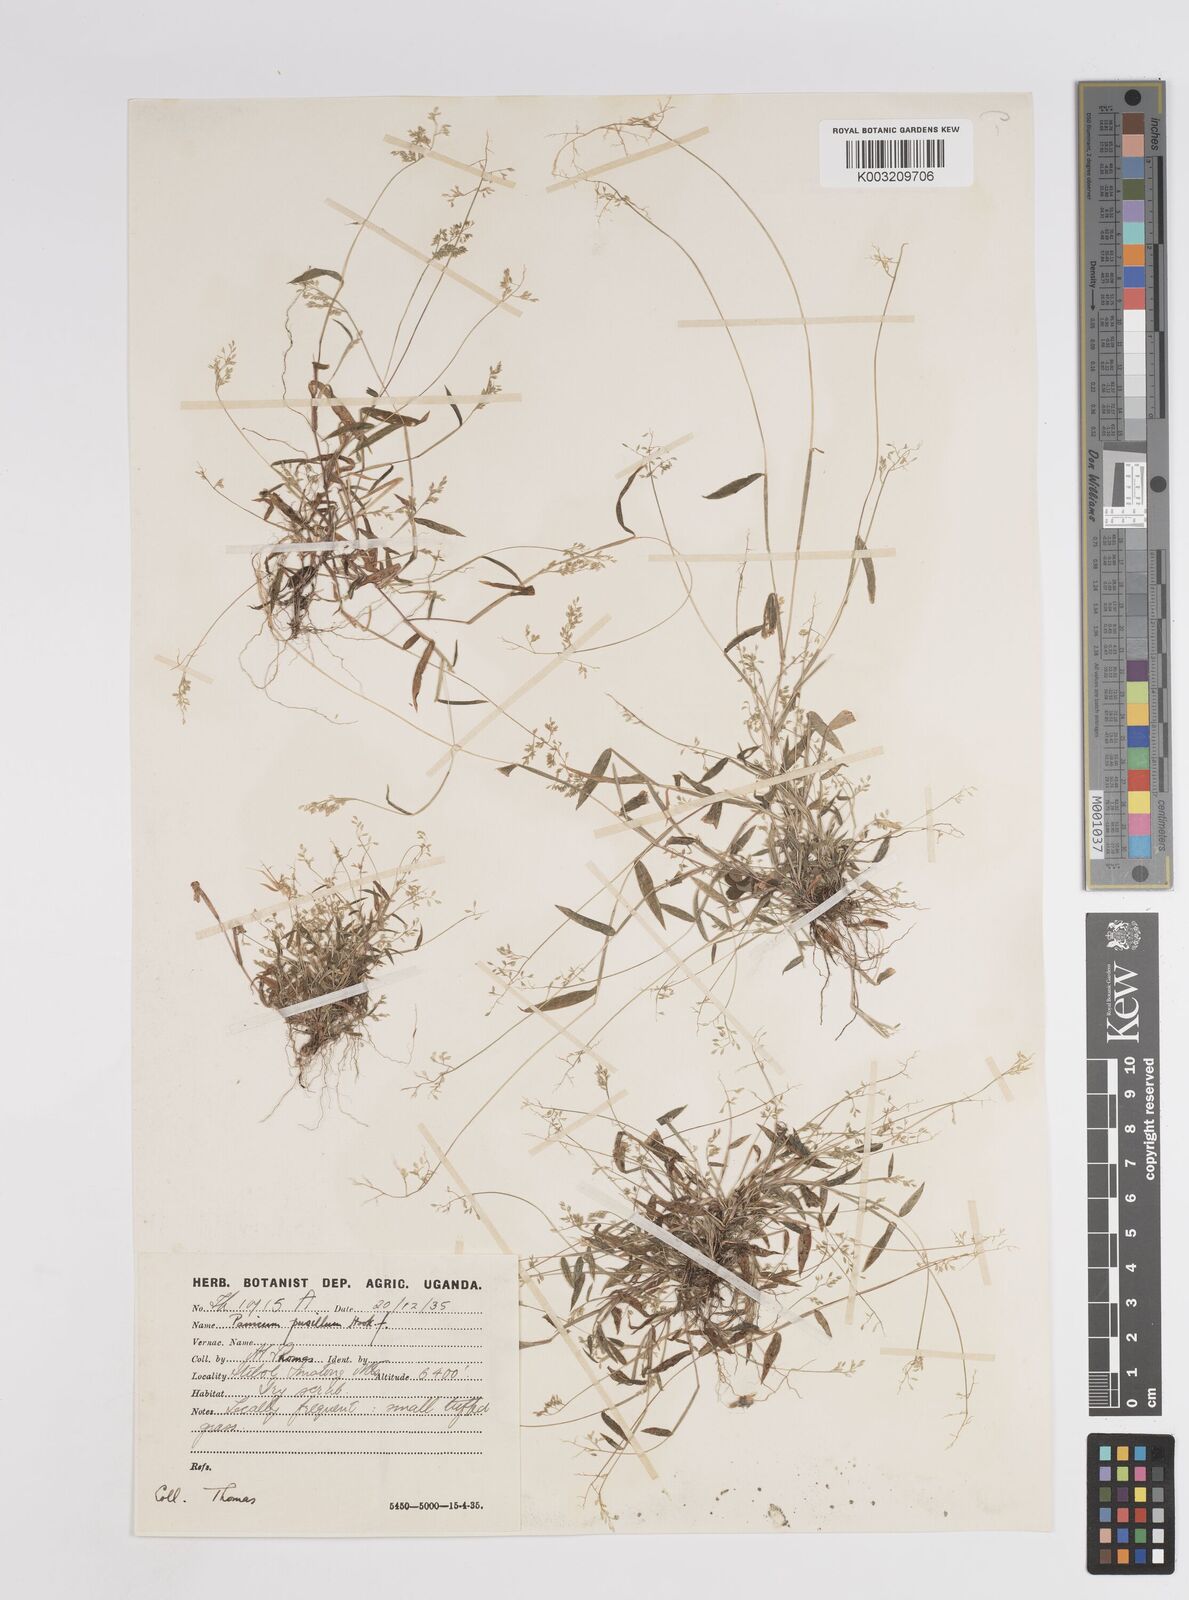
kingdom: Plantae
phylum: Tracheophyta
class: Liliopsida
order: Poales
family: Poaceae
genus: Panicum
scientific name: Panicum pusillum
